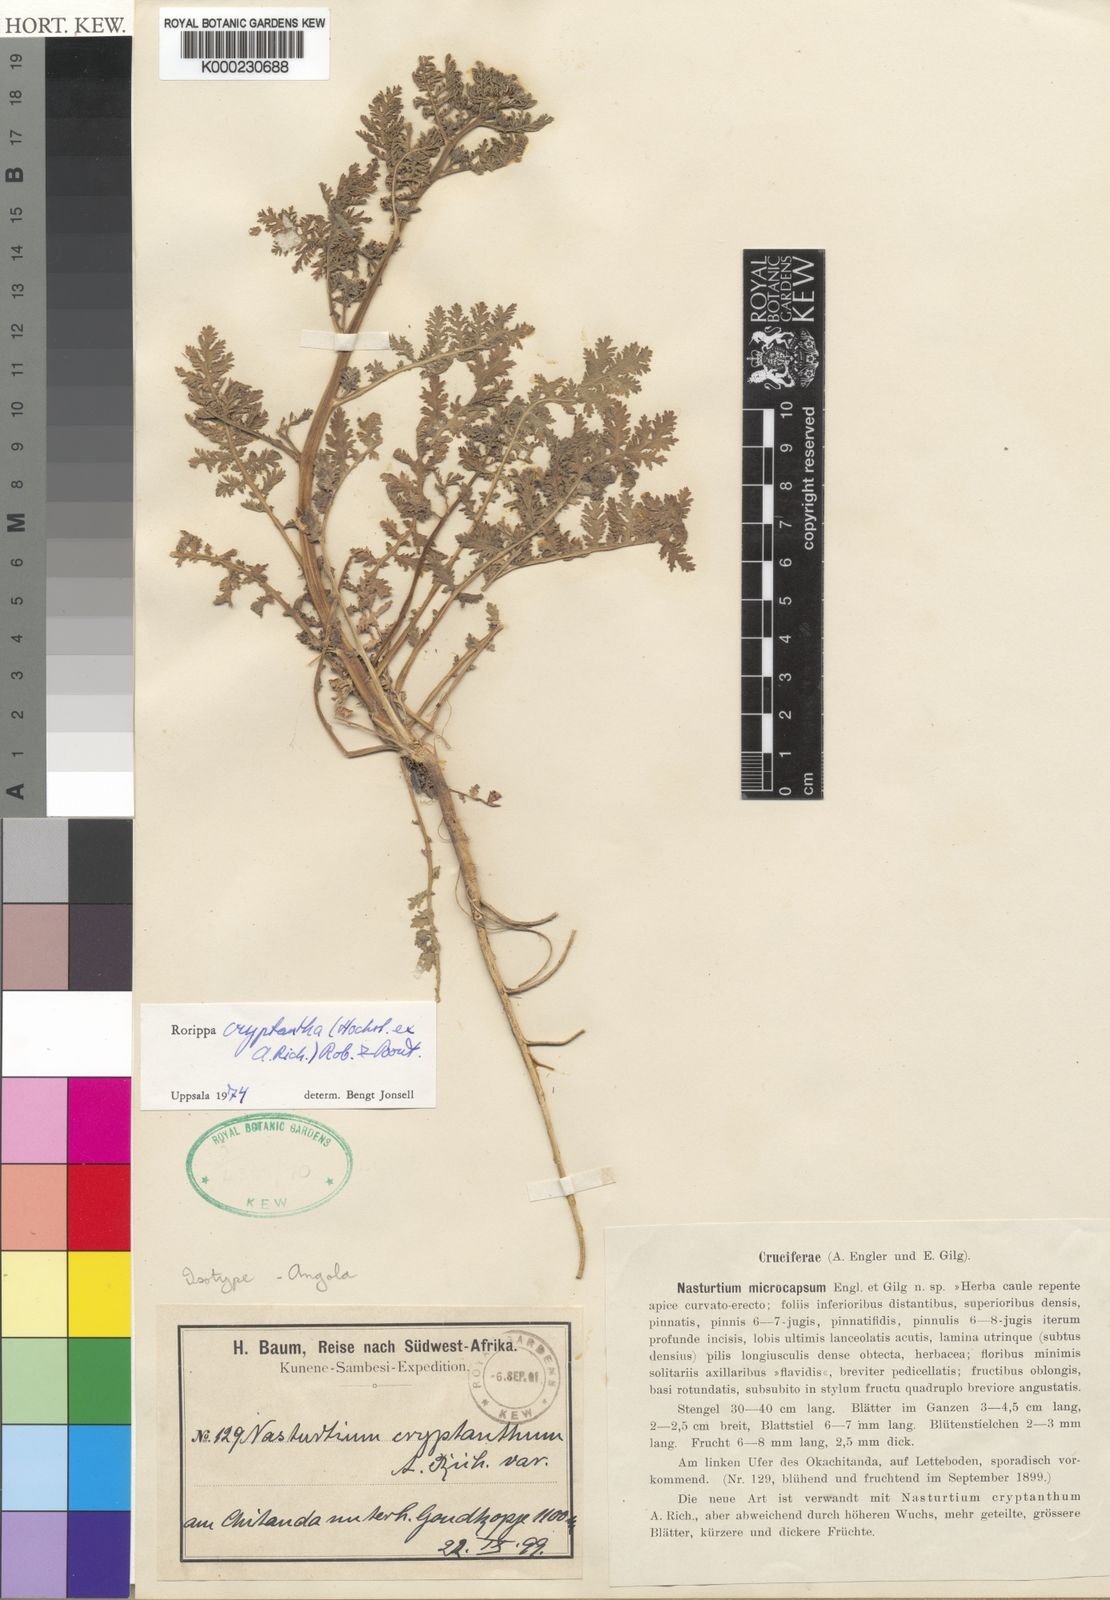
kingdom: Plantae
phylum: Tracheophyta
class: Magnoliopsida
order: Brassicales
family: Brassicaceae
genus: Rorippa
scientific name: Rorippa cryptantha
